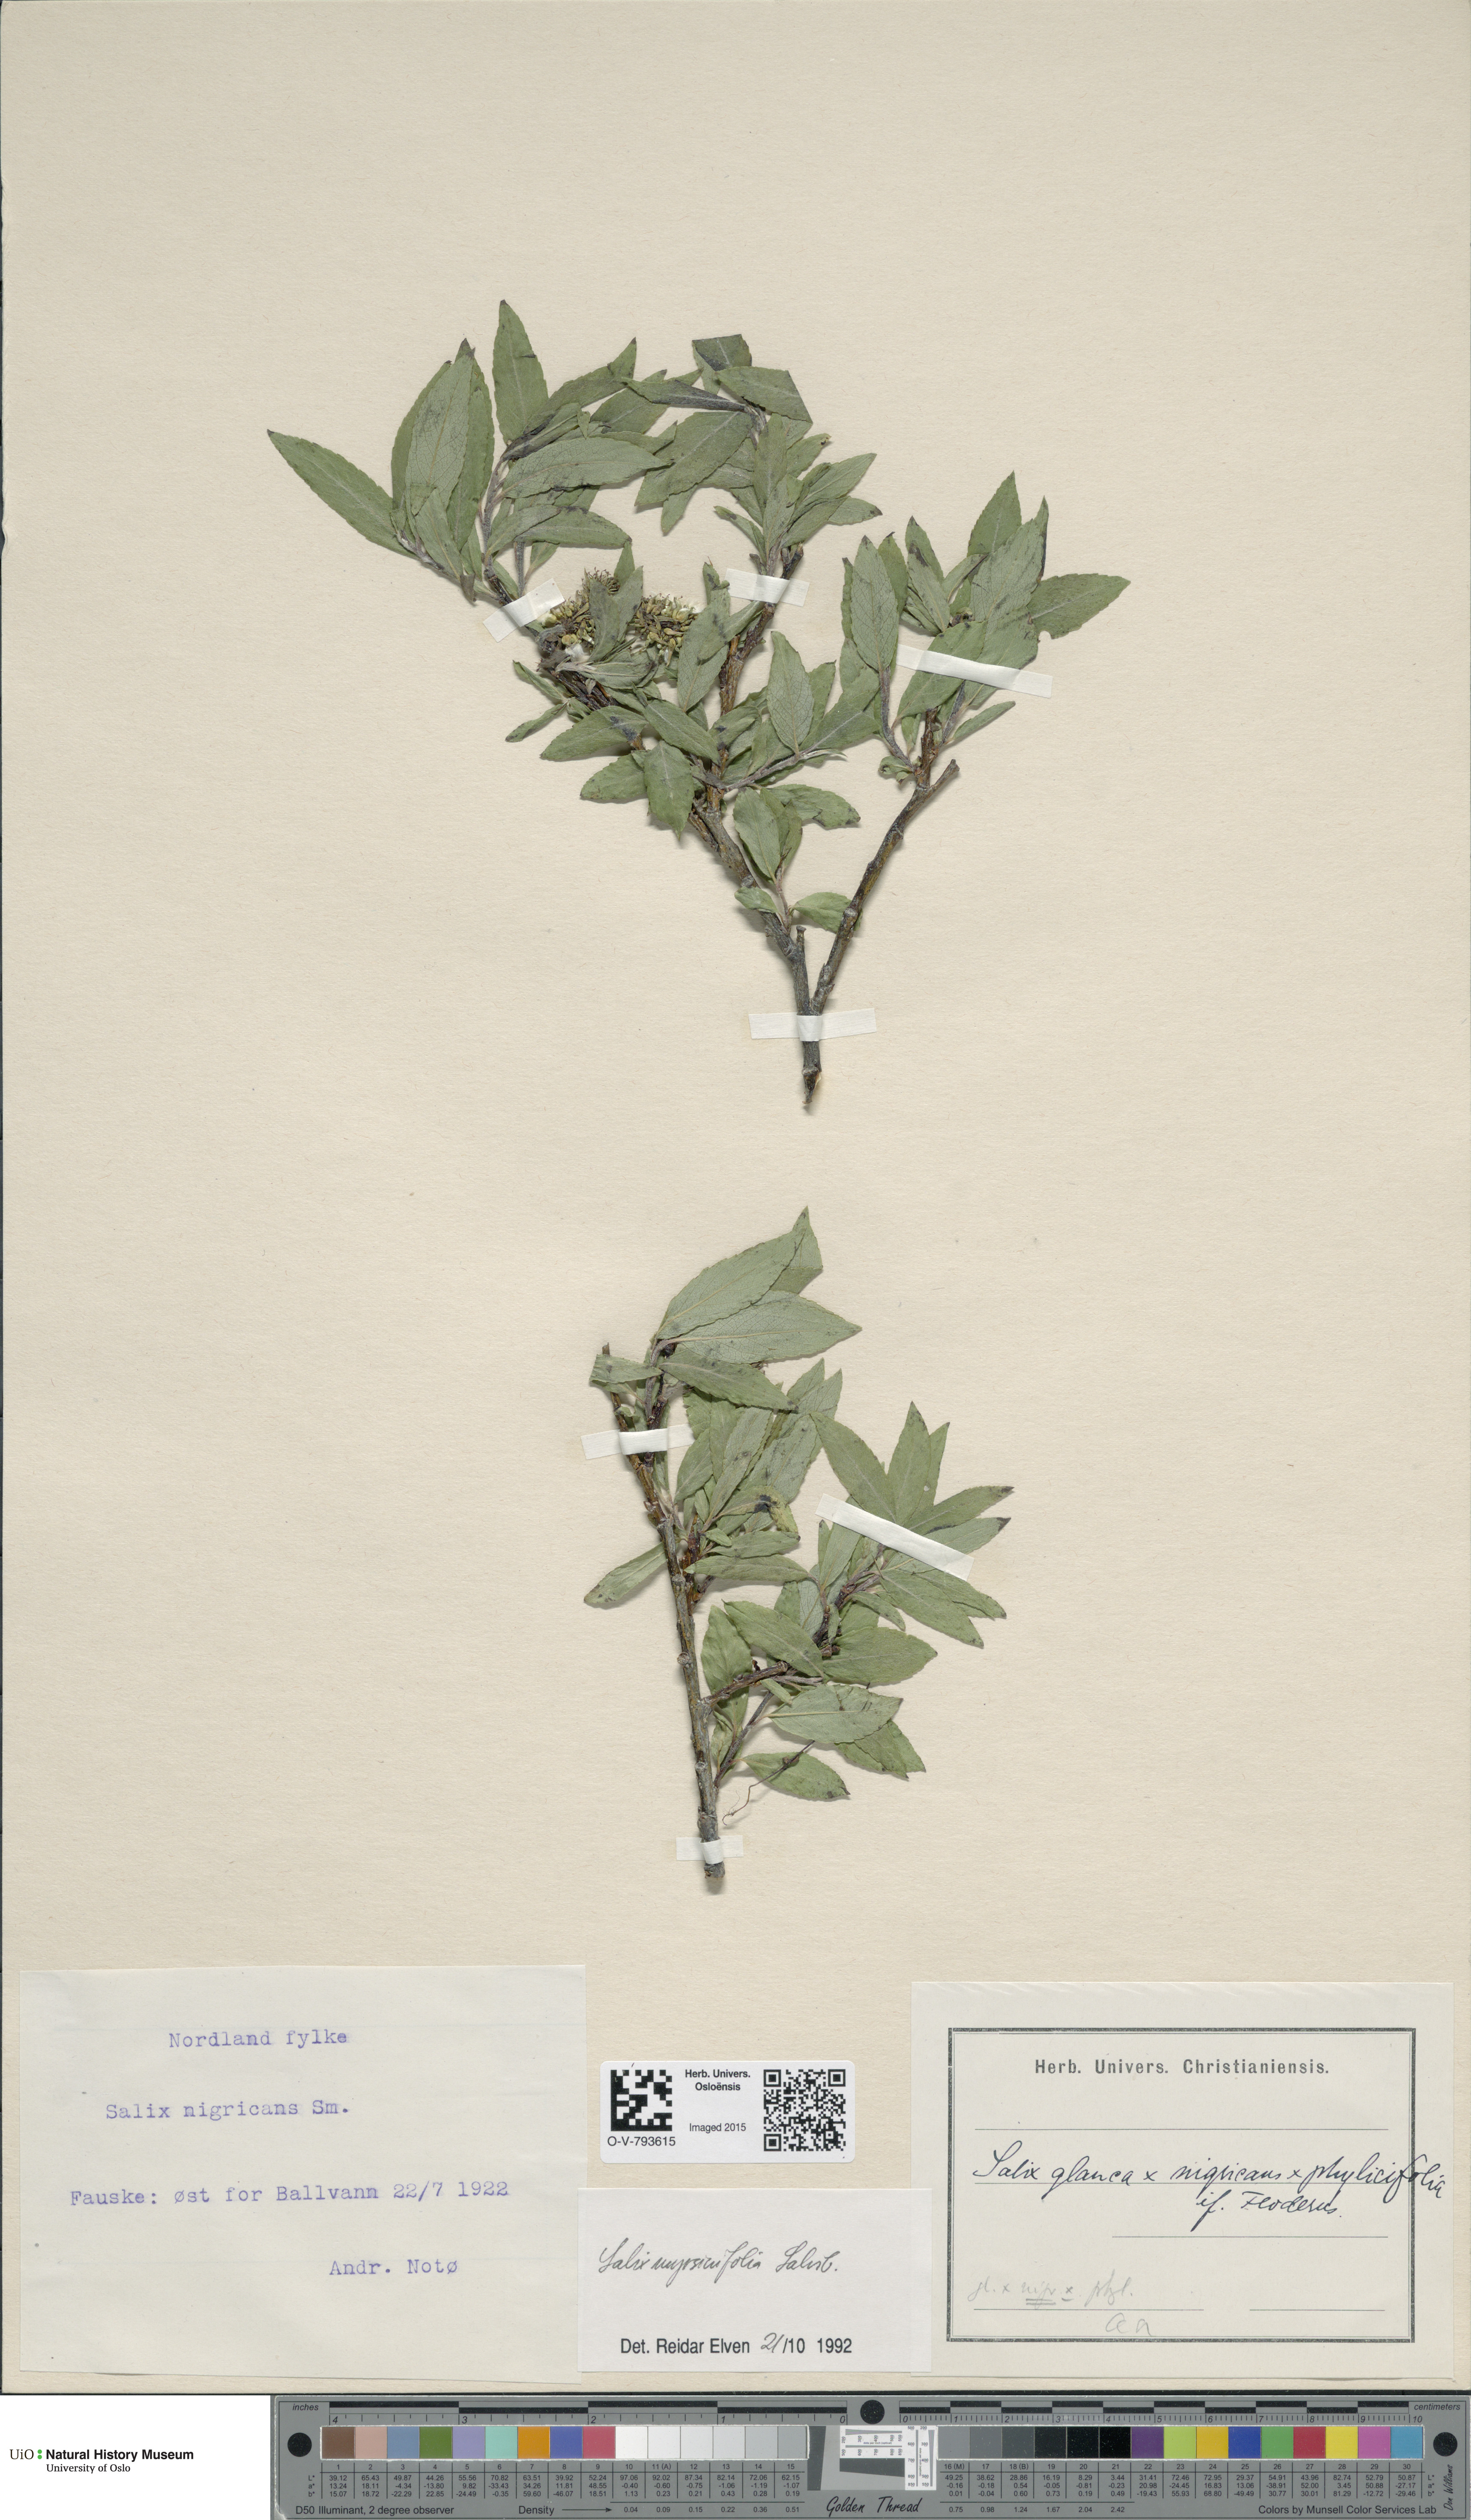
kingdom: Plantae
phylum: Tracheophyta
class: Magnoliopsida
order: Malpighiales
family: Salicaceae
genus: Salix
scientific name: Salix myrsinifolia
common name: Dark-leaved willow
